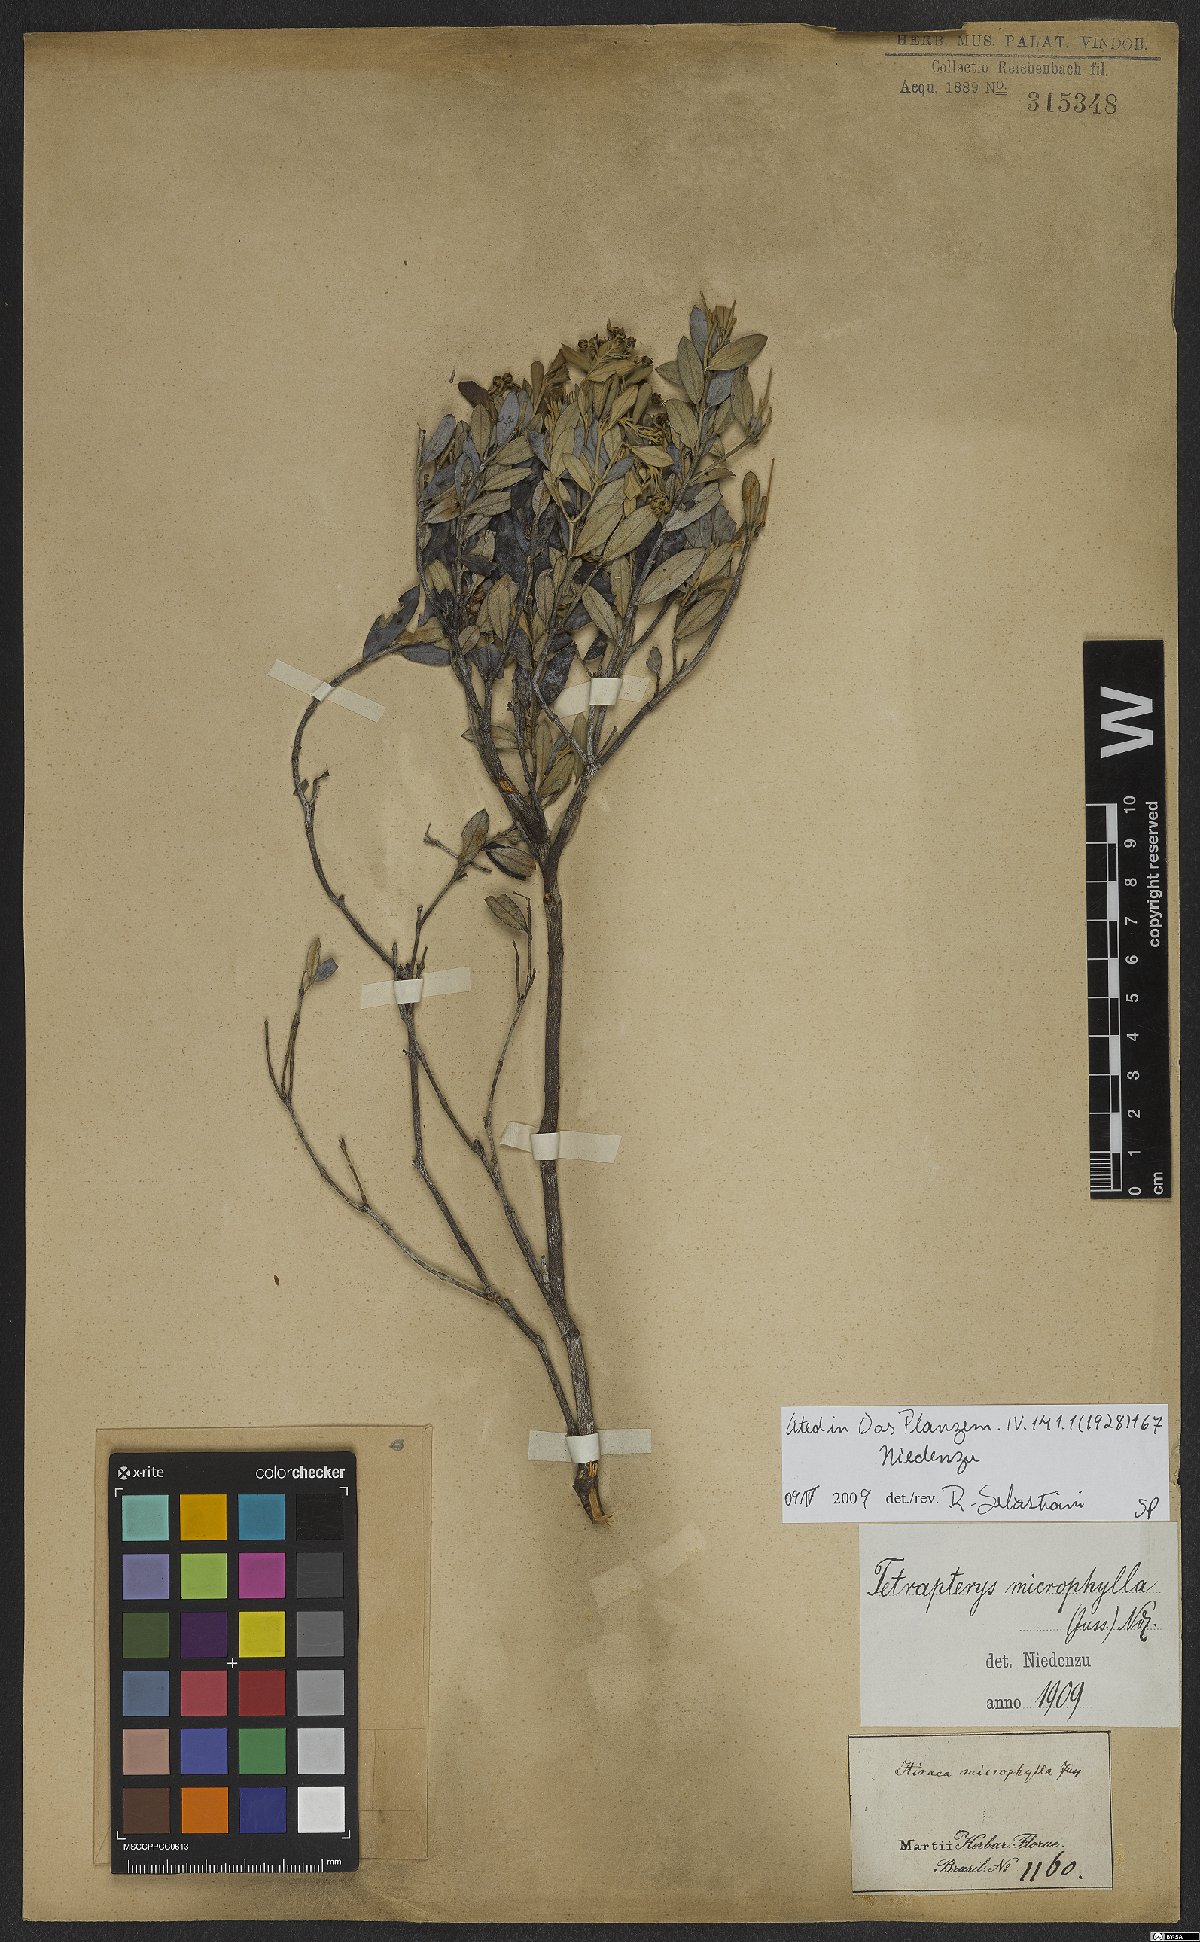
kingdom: Plantae
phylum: Tracheophyta
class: Magnoliopsida
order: Malpighiales
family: Malpighiaceae
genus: Glicophyllum
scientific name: Glicophyllum microphyllum
